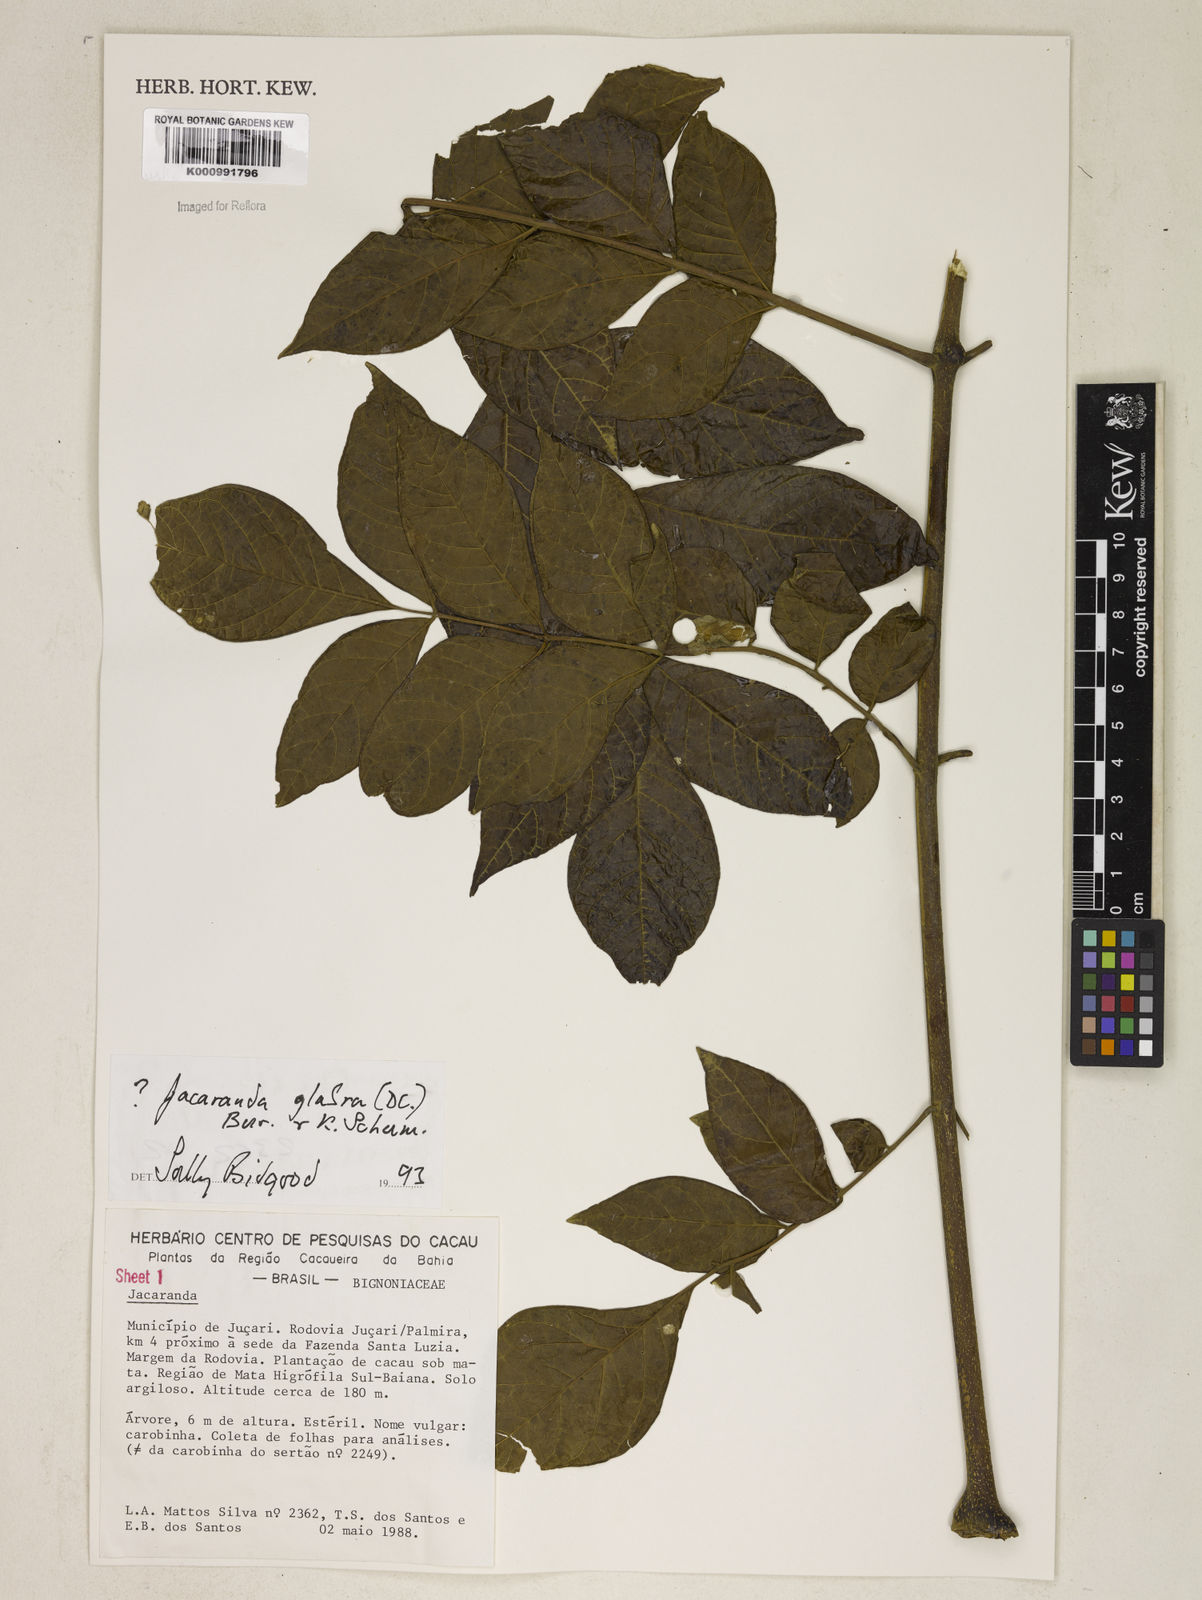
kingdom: Plantae
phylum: Tracheophyta
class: Magnoliopsida
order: Lamiales
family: Bignoniaceae
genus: Jacaranda
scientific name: Jacaranda glabra
